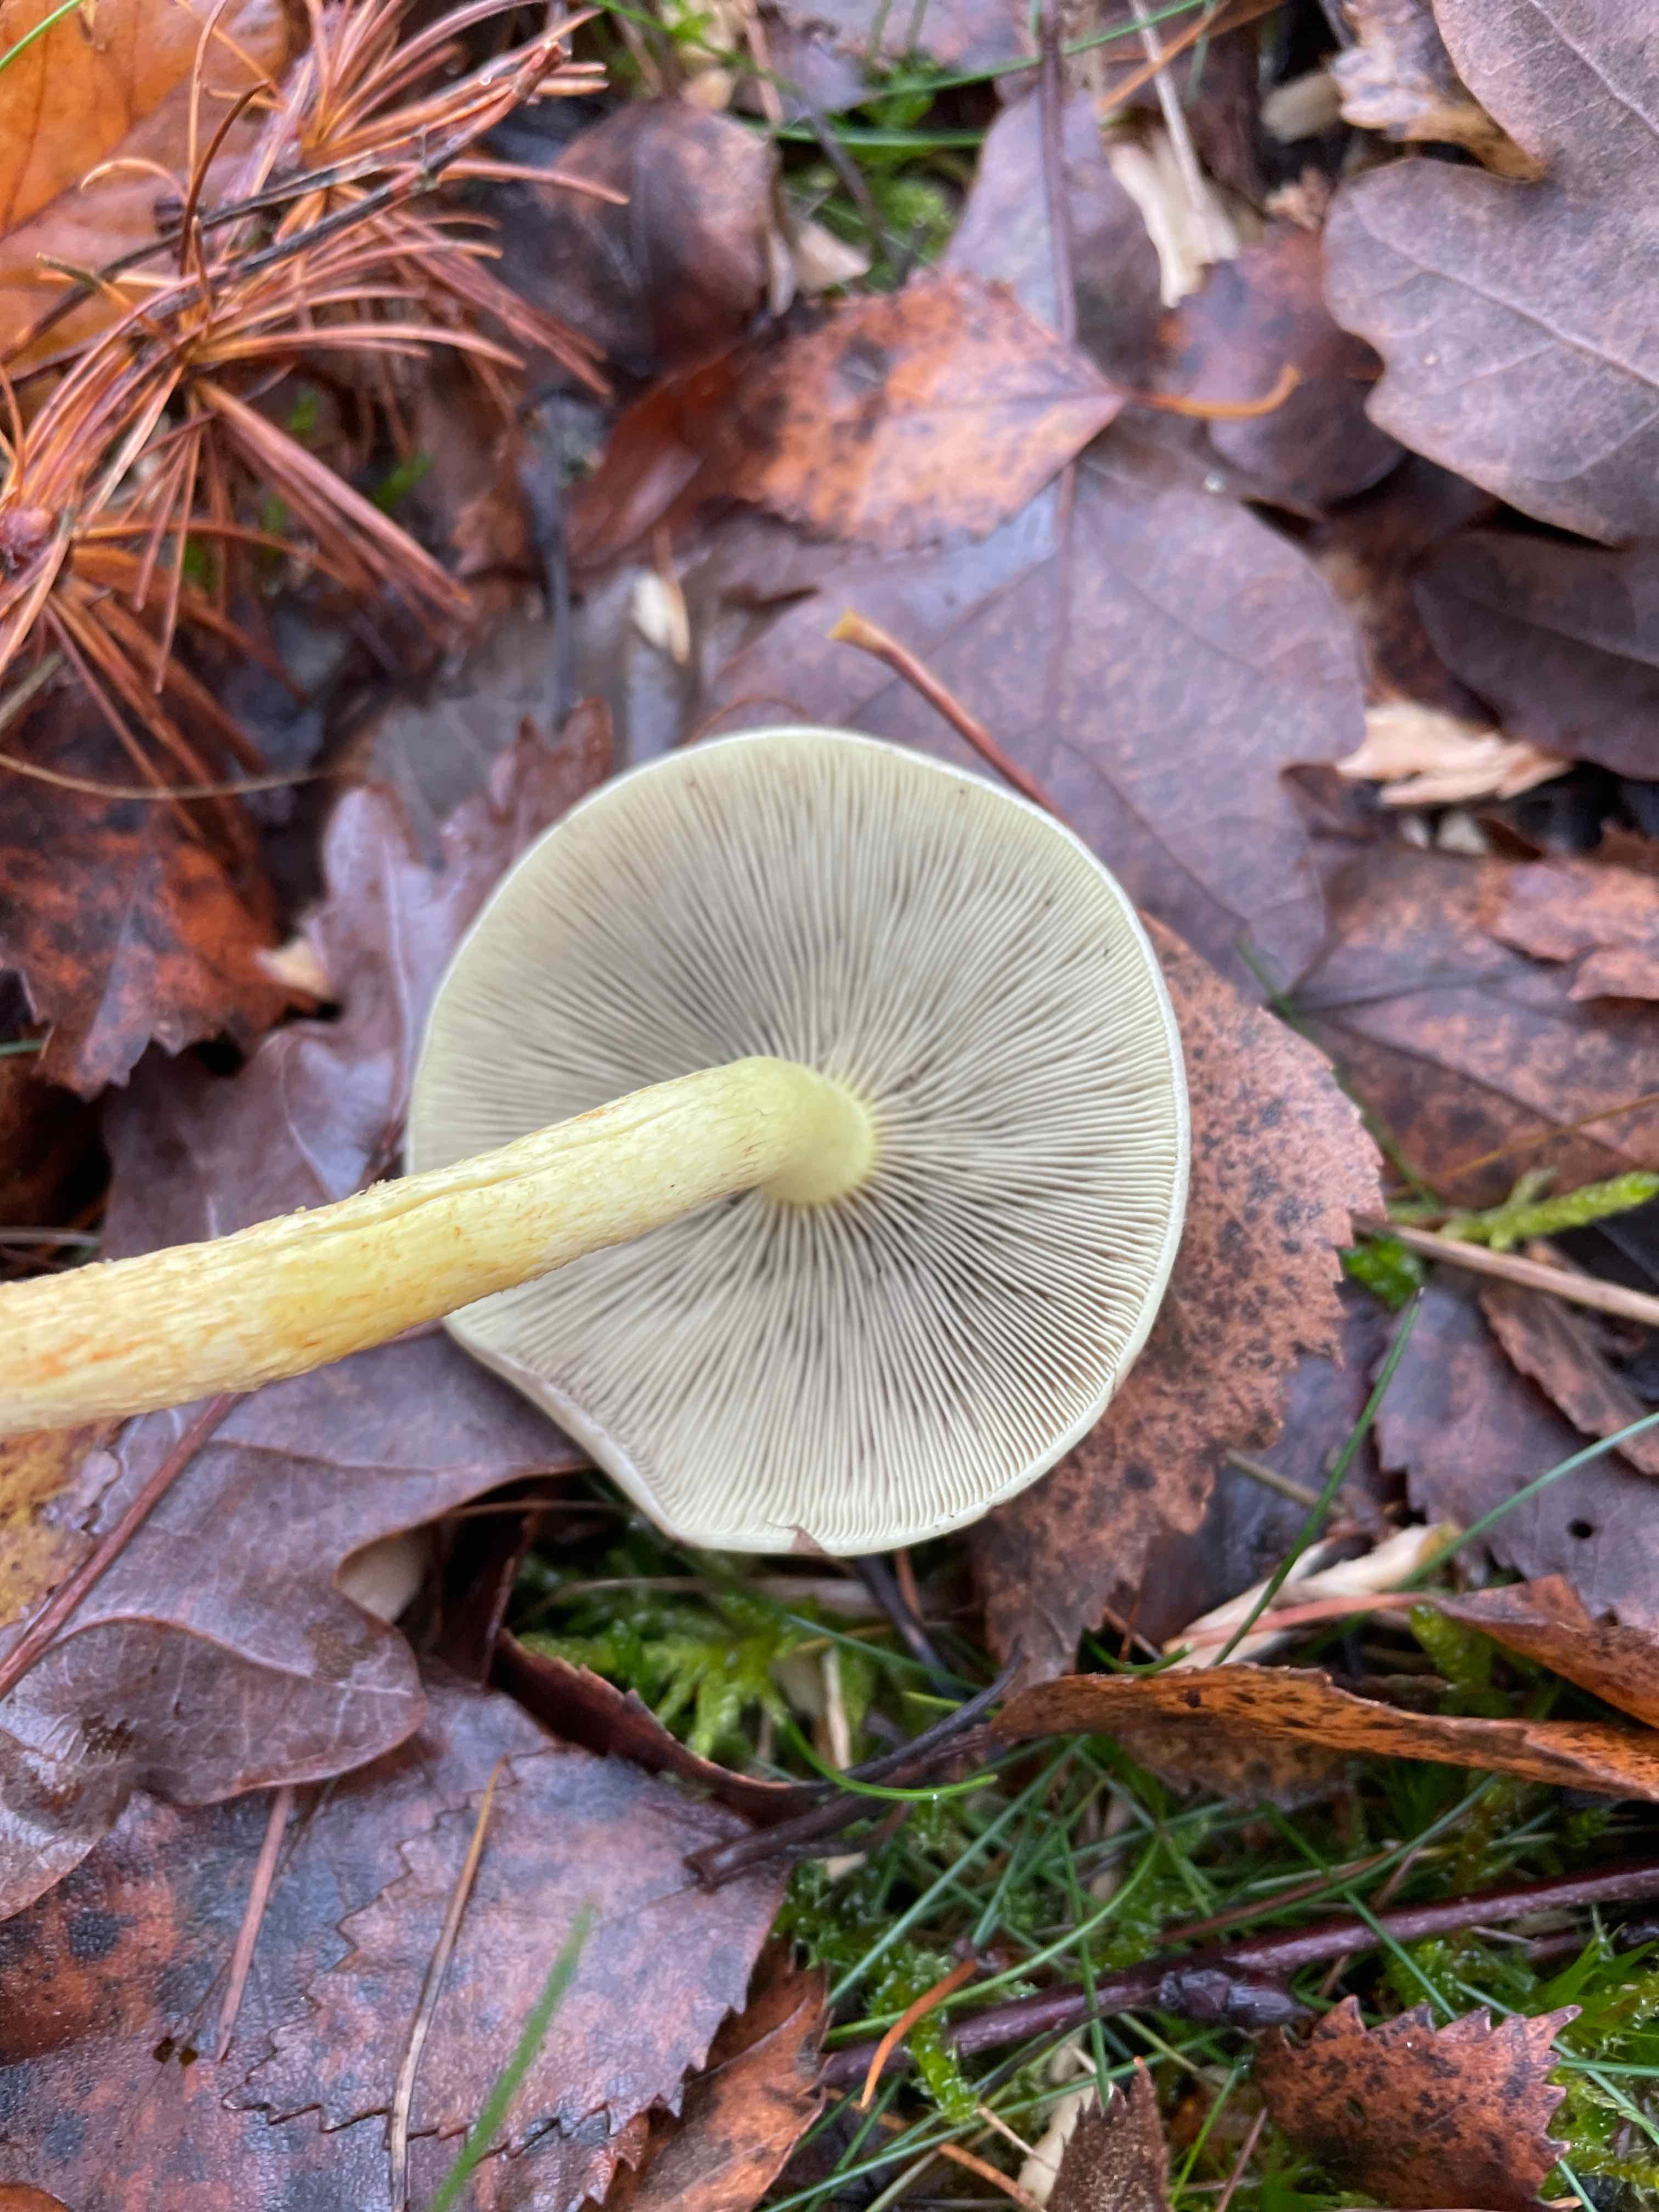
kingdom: Fungi
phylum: Basidiomycota
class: Agaricomycetes
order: Agaricales
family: Strophariaceae
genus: Hypholoma
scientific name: Hypholoma fasciculare
